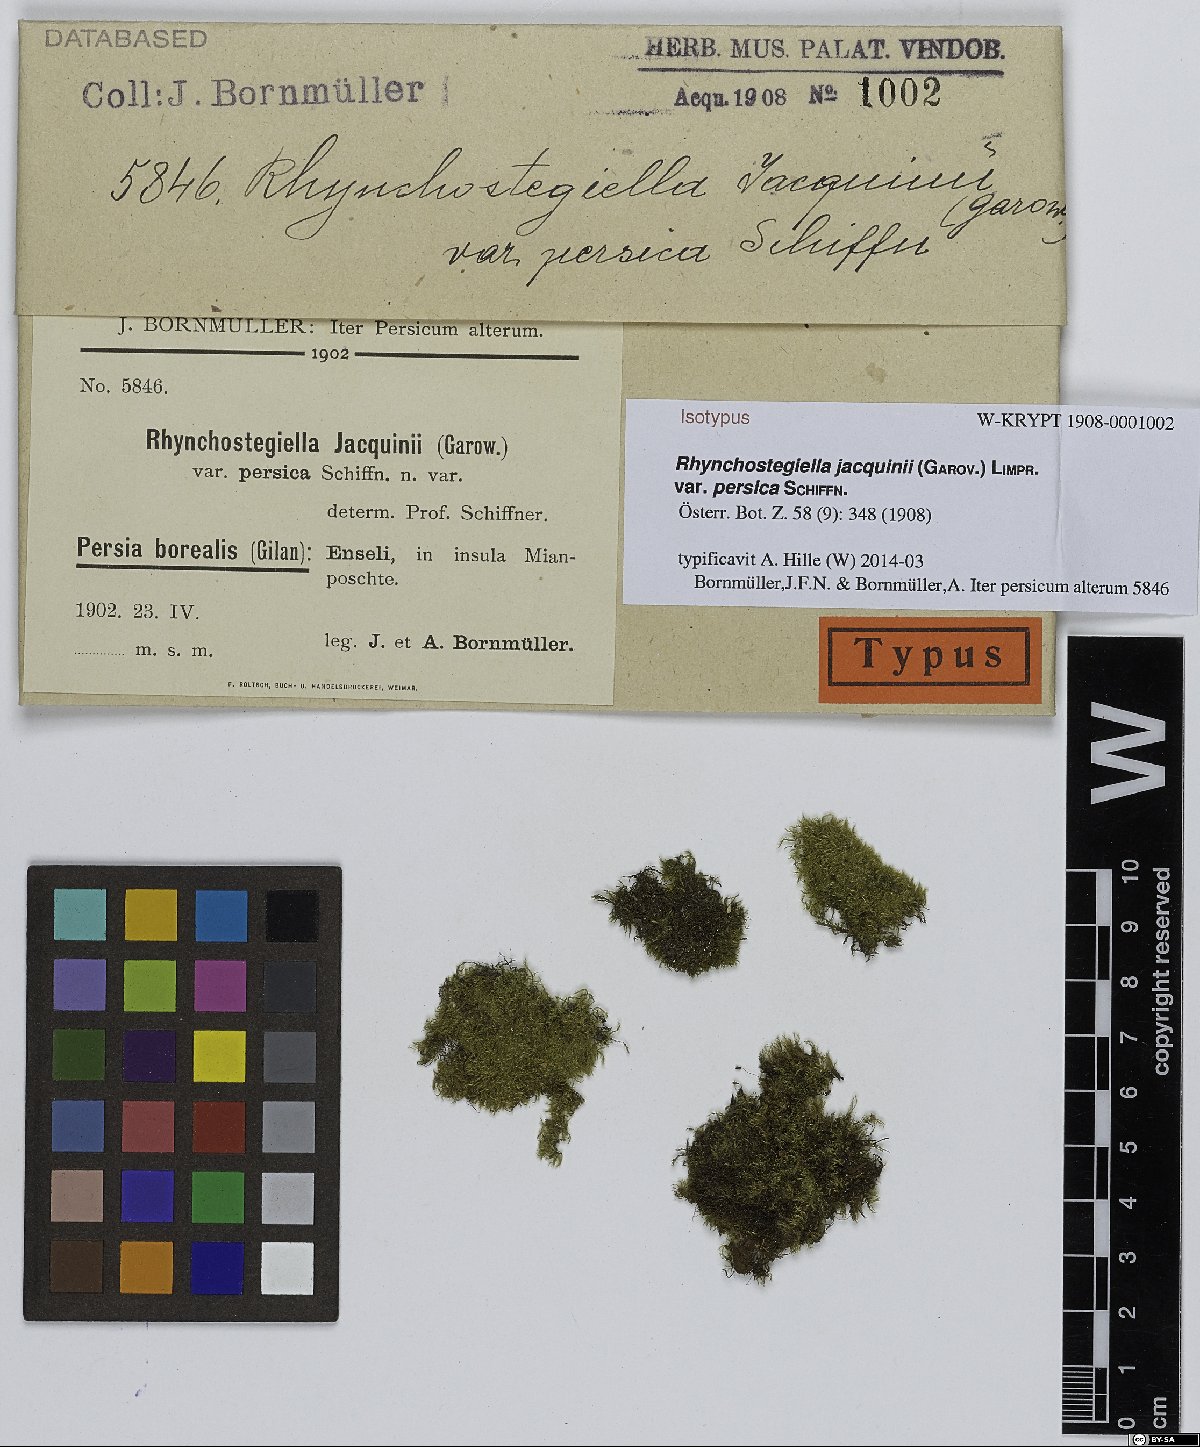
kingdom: Plantae
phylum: Bryophyta
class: Bryopsida
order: Hypnales
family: Brachytheciaceae
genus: Rhynchostegiella
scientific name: Rhynchostegiella teneriffae
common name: Teesdale feather-moss
